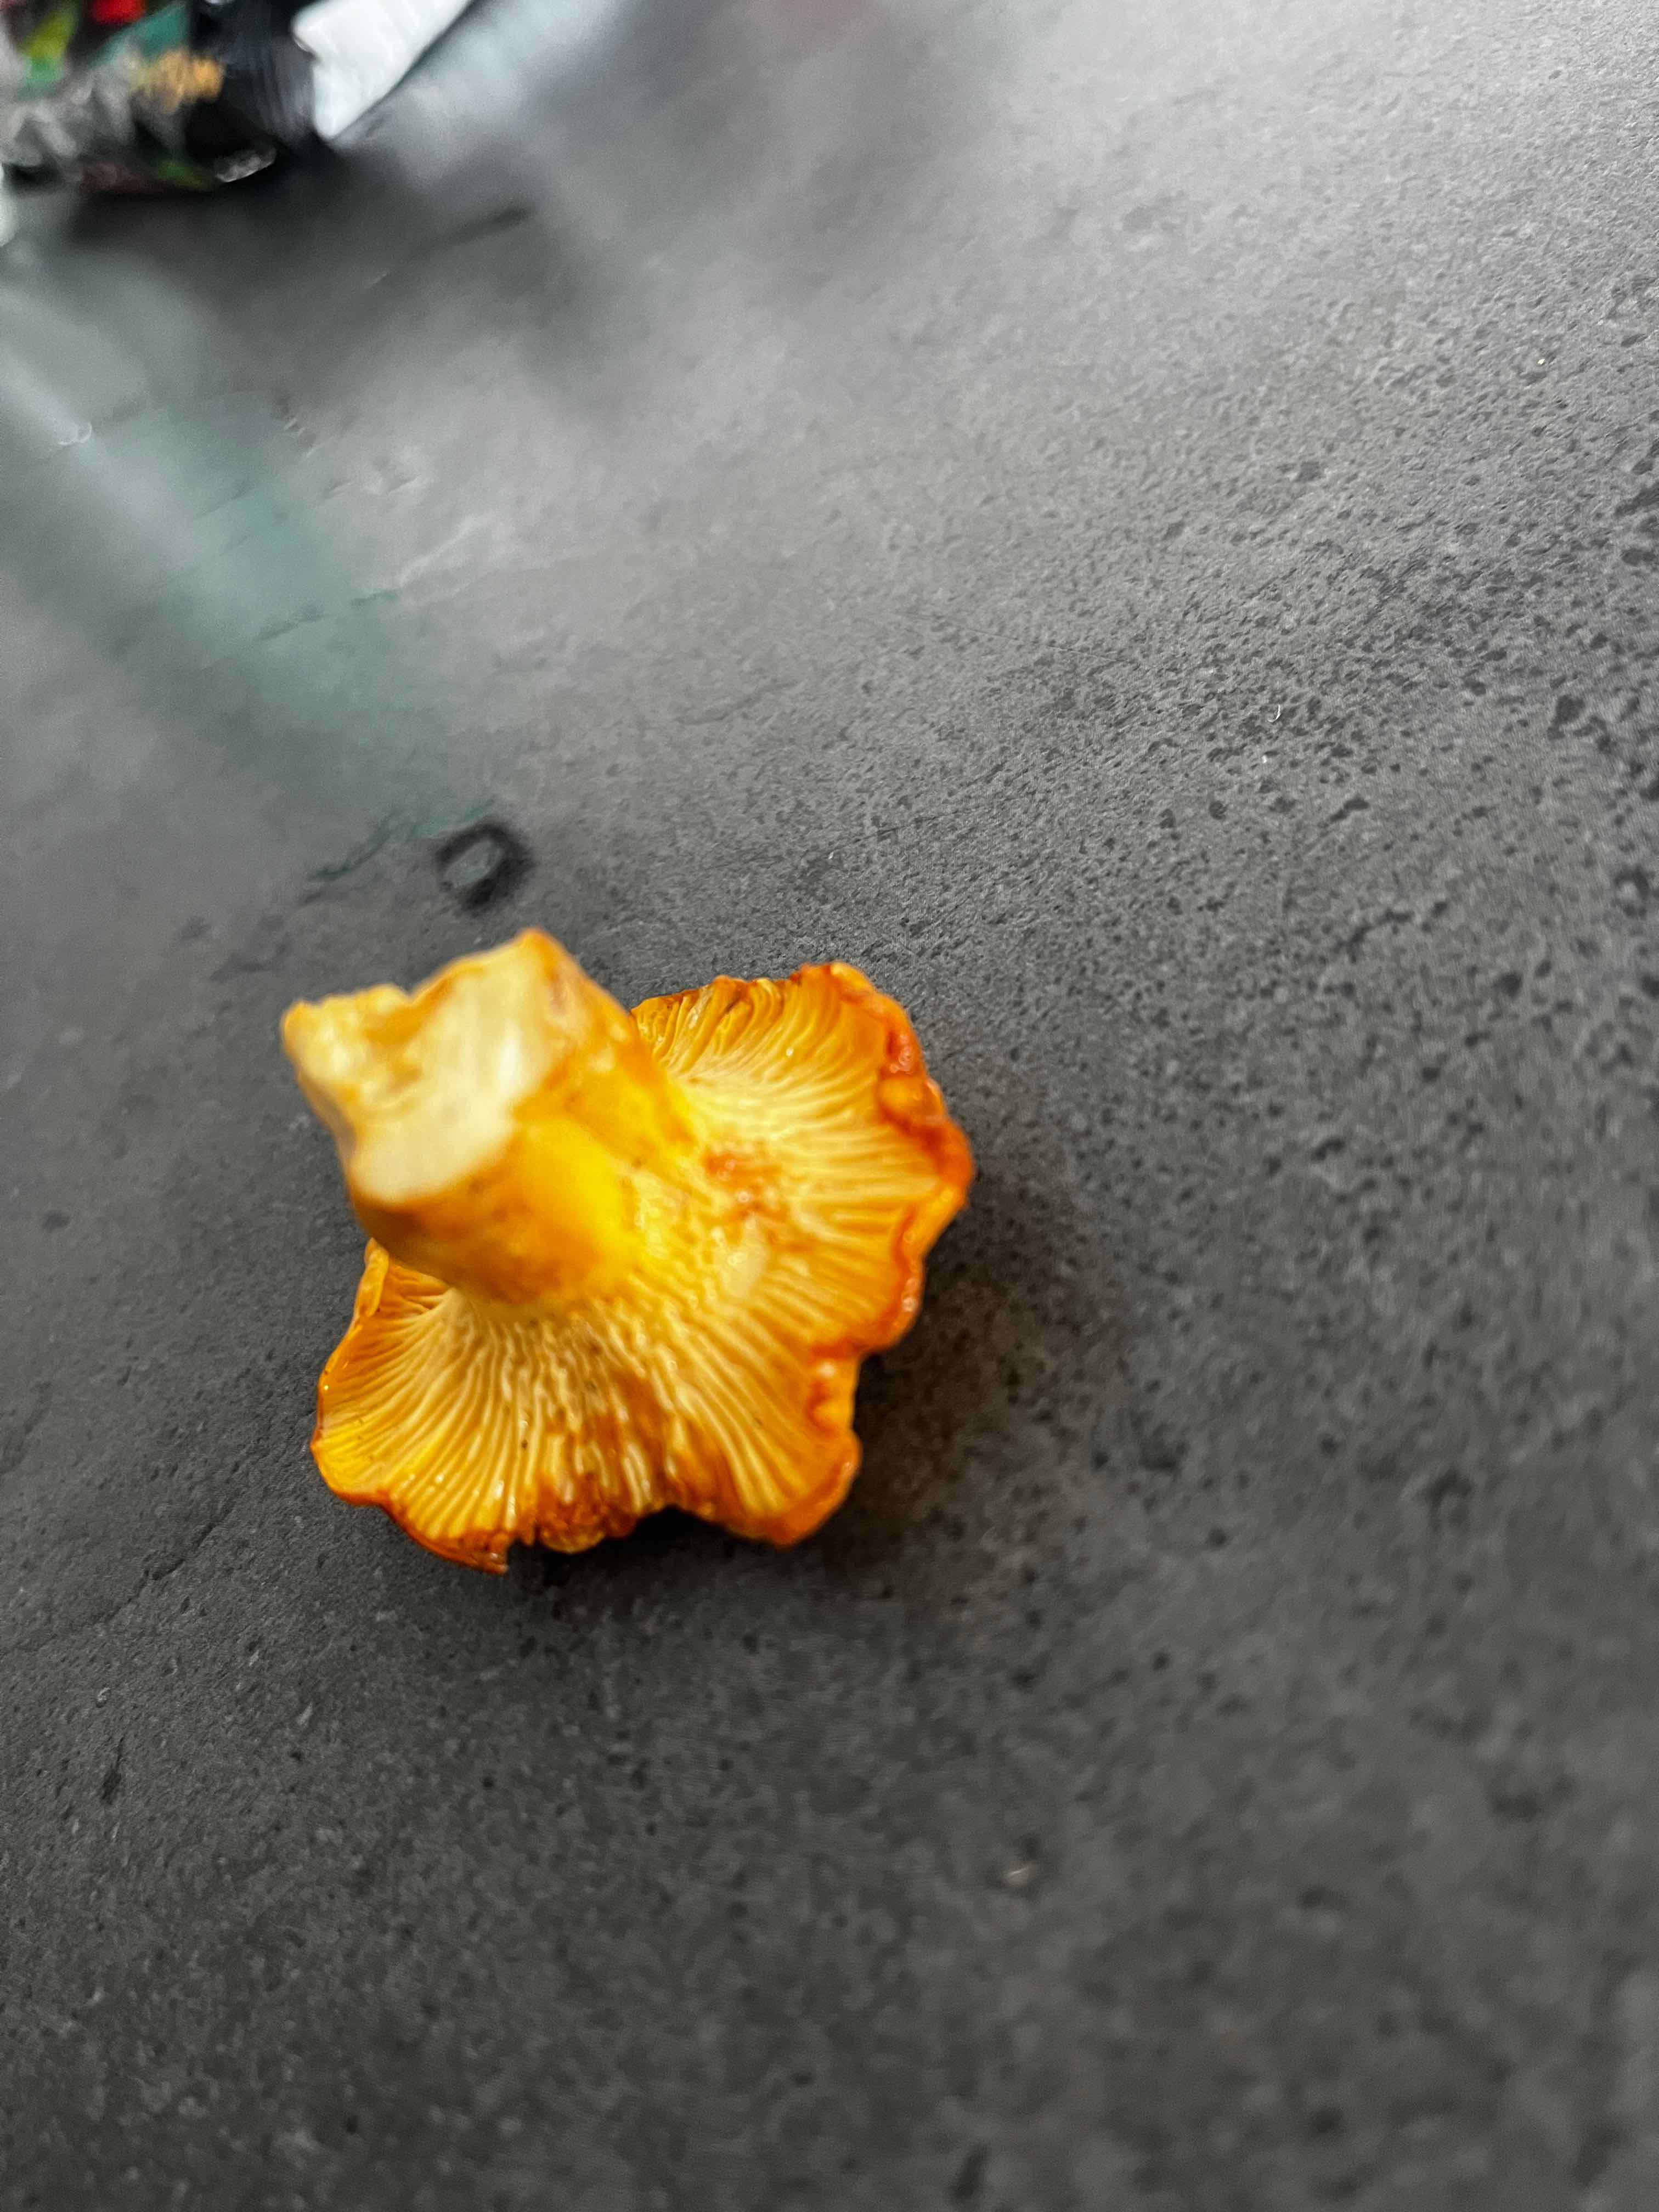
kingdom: Fungi
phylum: Basidiomycota
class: Agaricomycetes
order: Cantharellales
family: Hydnaceae
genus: Cantharellus
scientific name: Cantharellus cibarius
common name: almindelig kantarel
